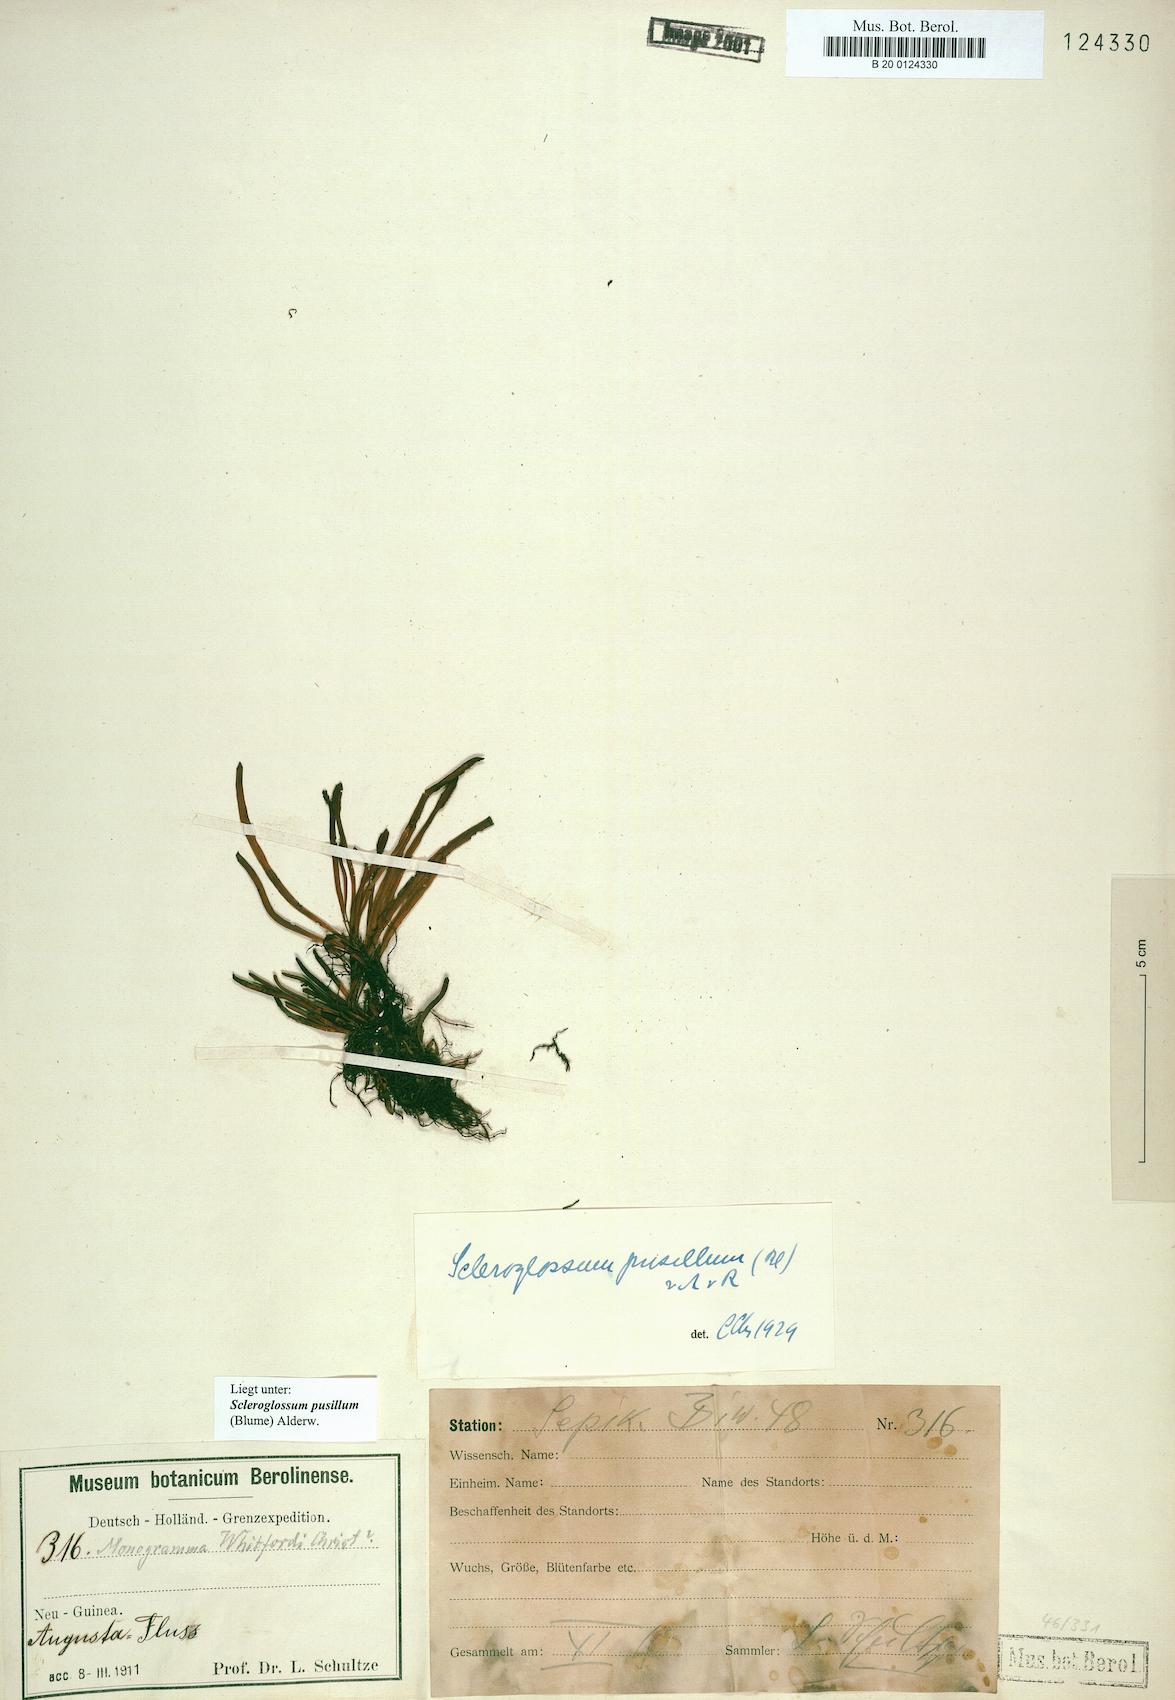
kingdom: Plantae
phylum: Tracheophyta
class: Polypodiopsida
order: Polypodiales
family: Polypodiaceae
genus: Scleroglossum
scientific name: Scleroglossum pusillum
